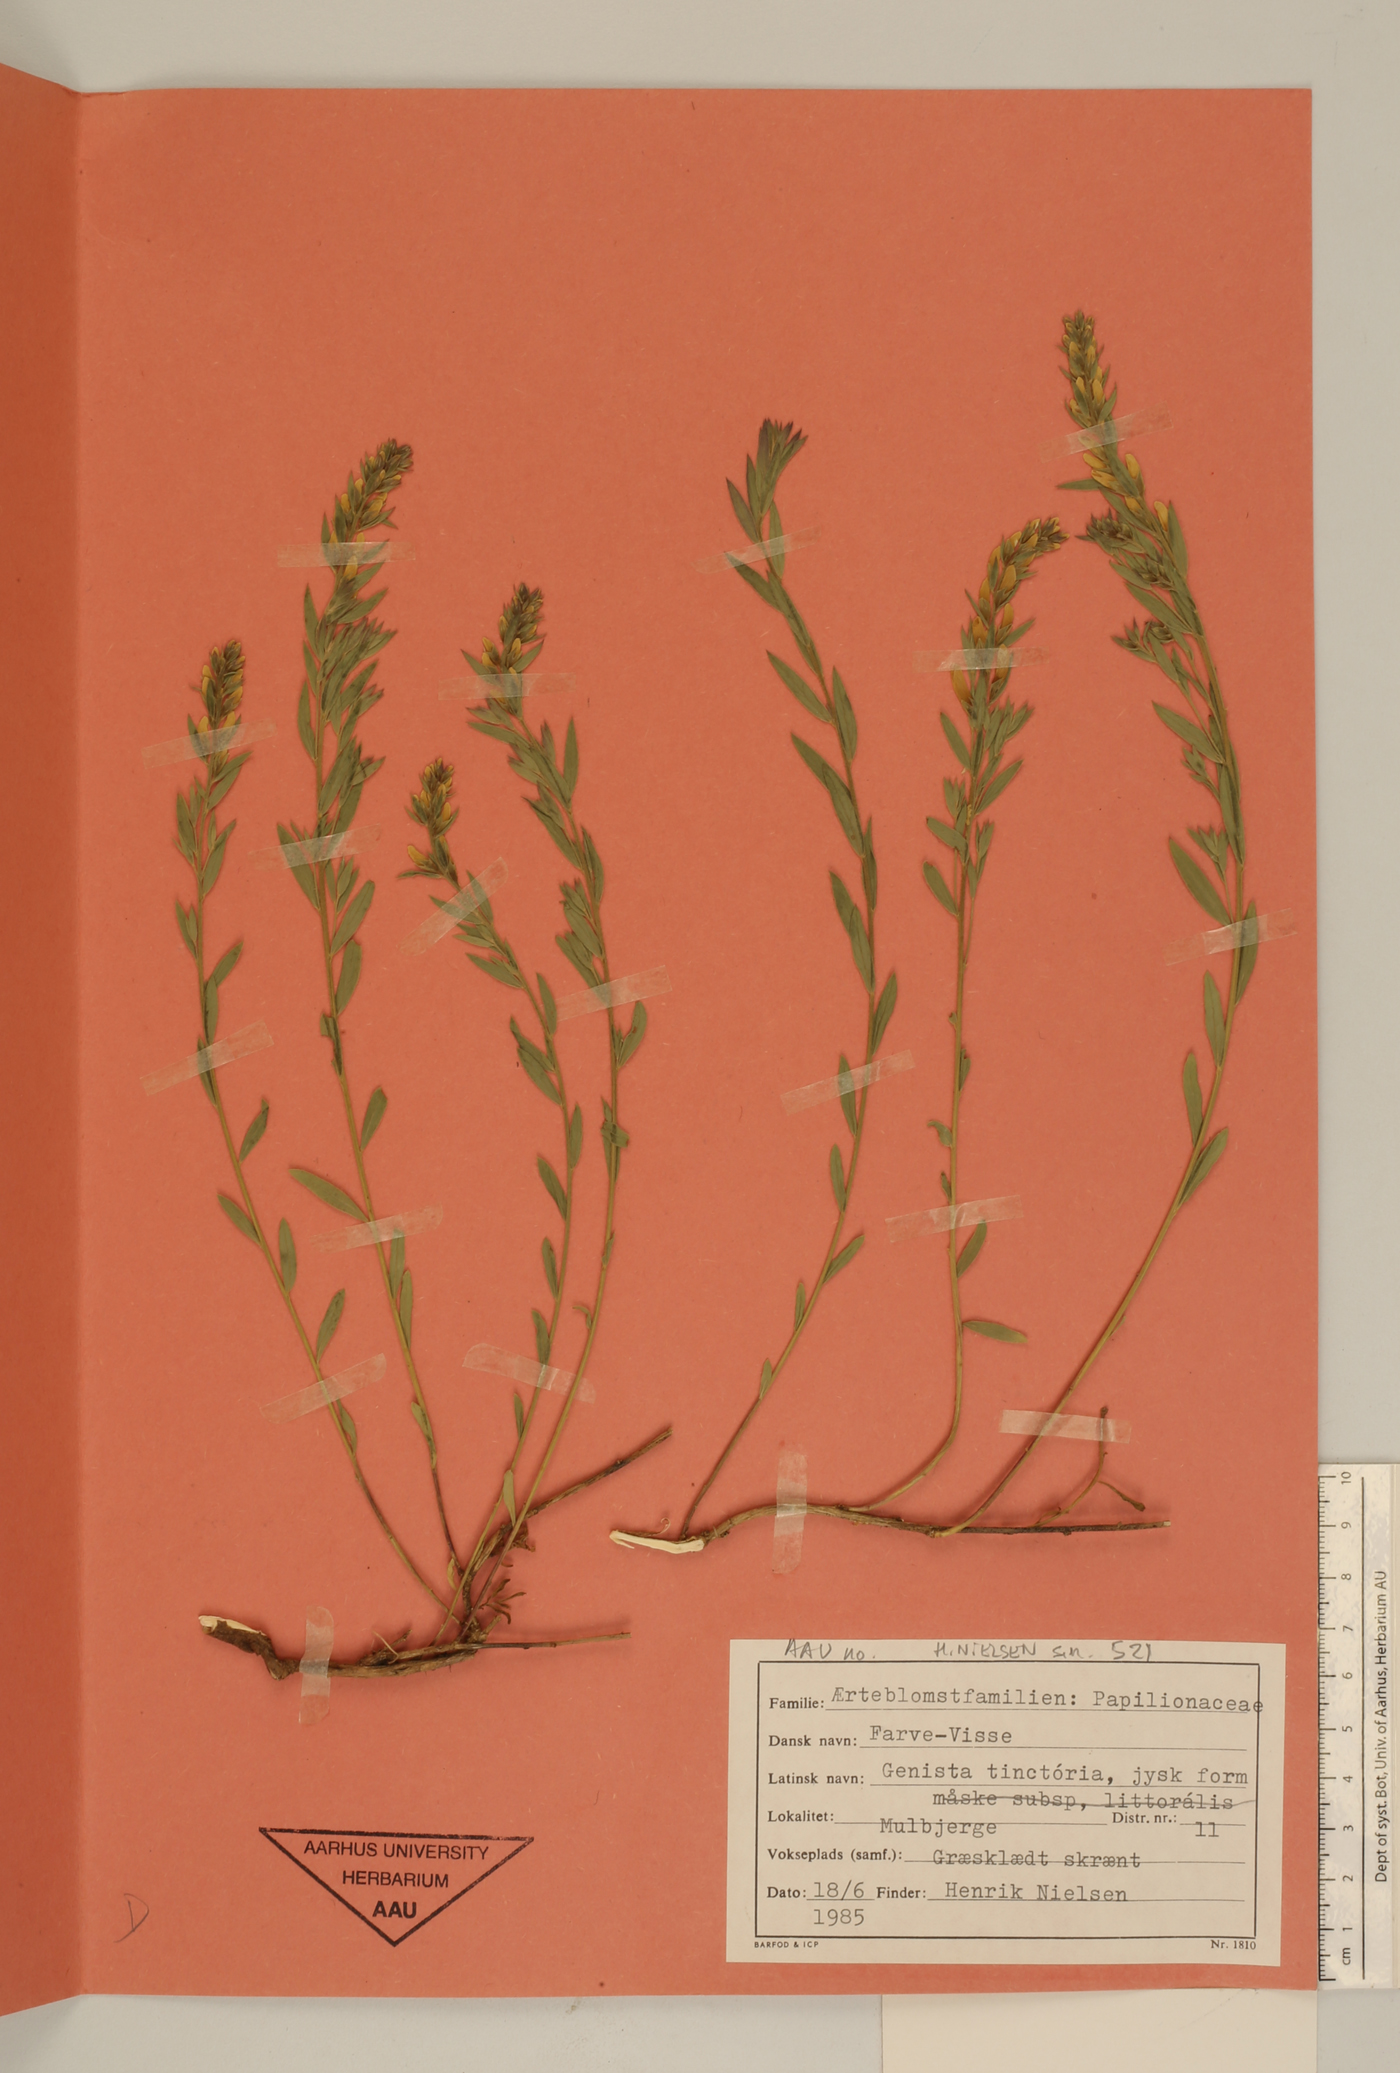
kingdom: Plantae
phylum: Tracheophyta
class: Magnoliopsida
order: Fabales
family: Fabaceae
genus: Genista
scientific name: Genista tinctoria
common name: Dyer's greenweed
